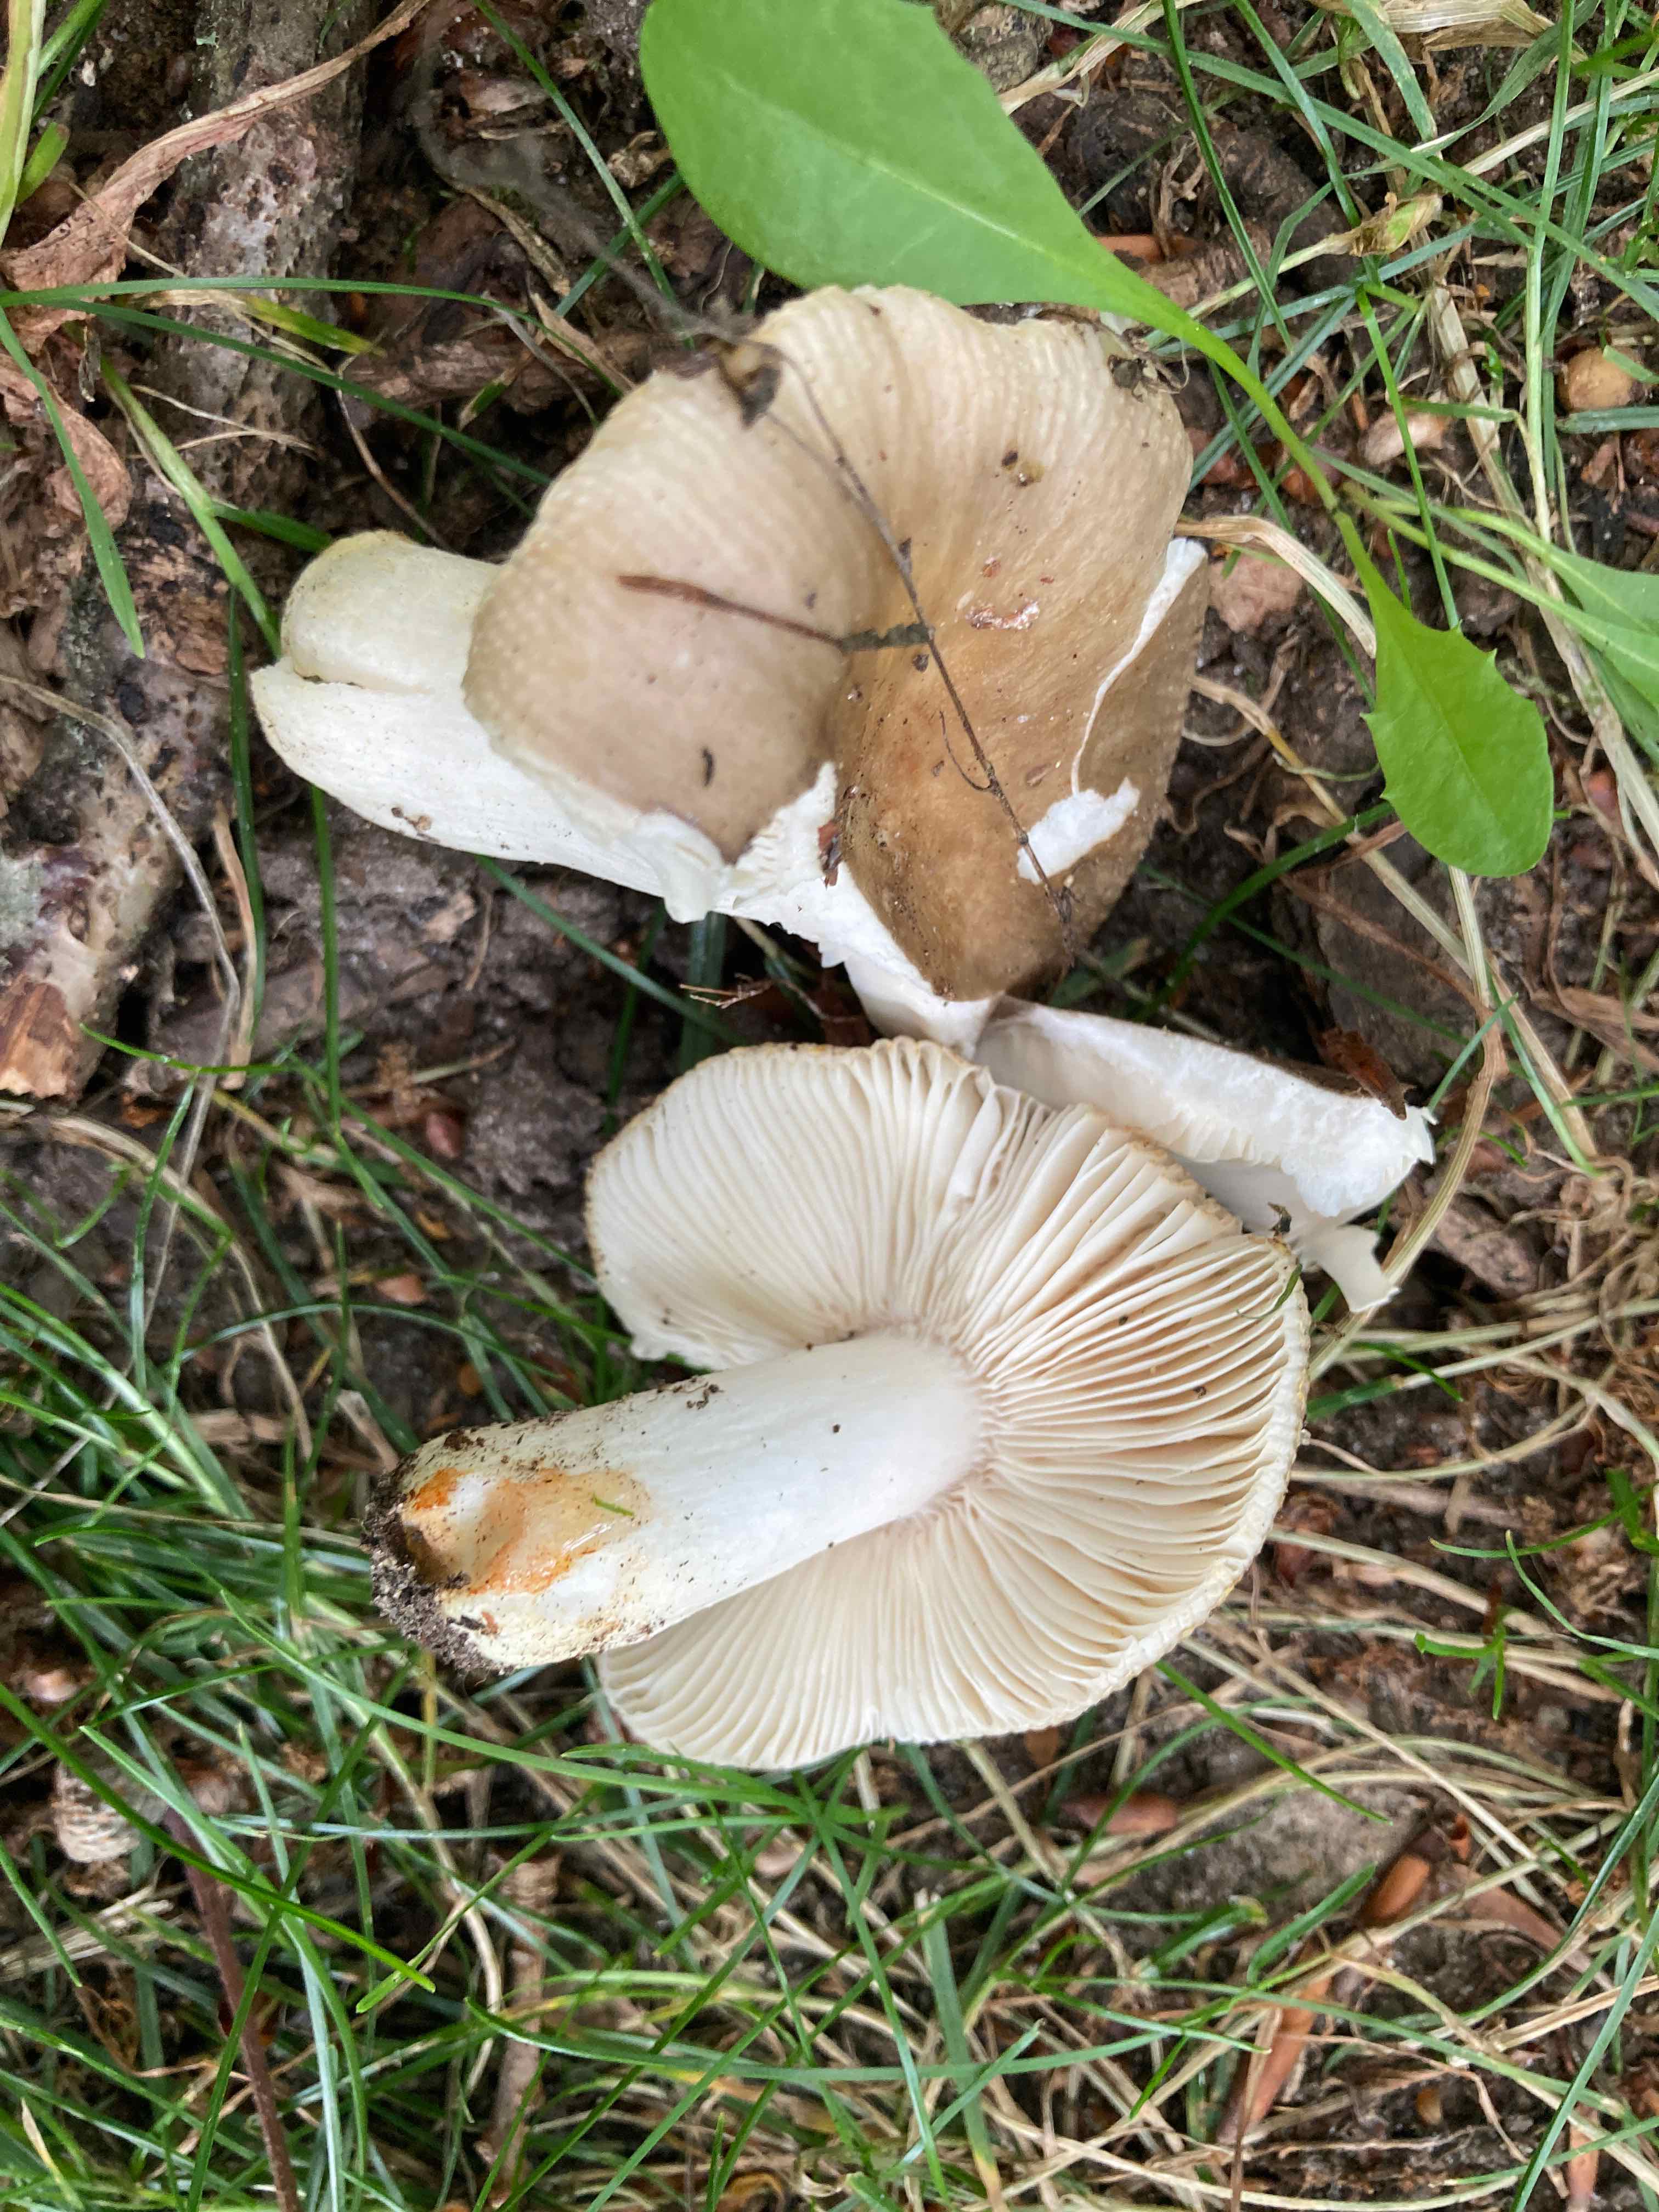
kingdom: Fungi
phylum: Basidiomycota
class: Agaricomycetes
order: Russulales
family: Russulaceae
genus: Russula
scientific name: Russula insignis
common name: gulfodet kam-skørhat
